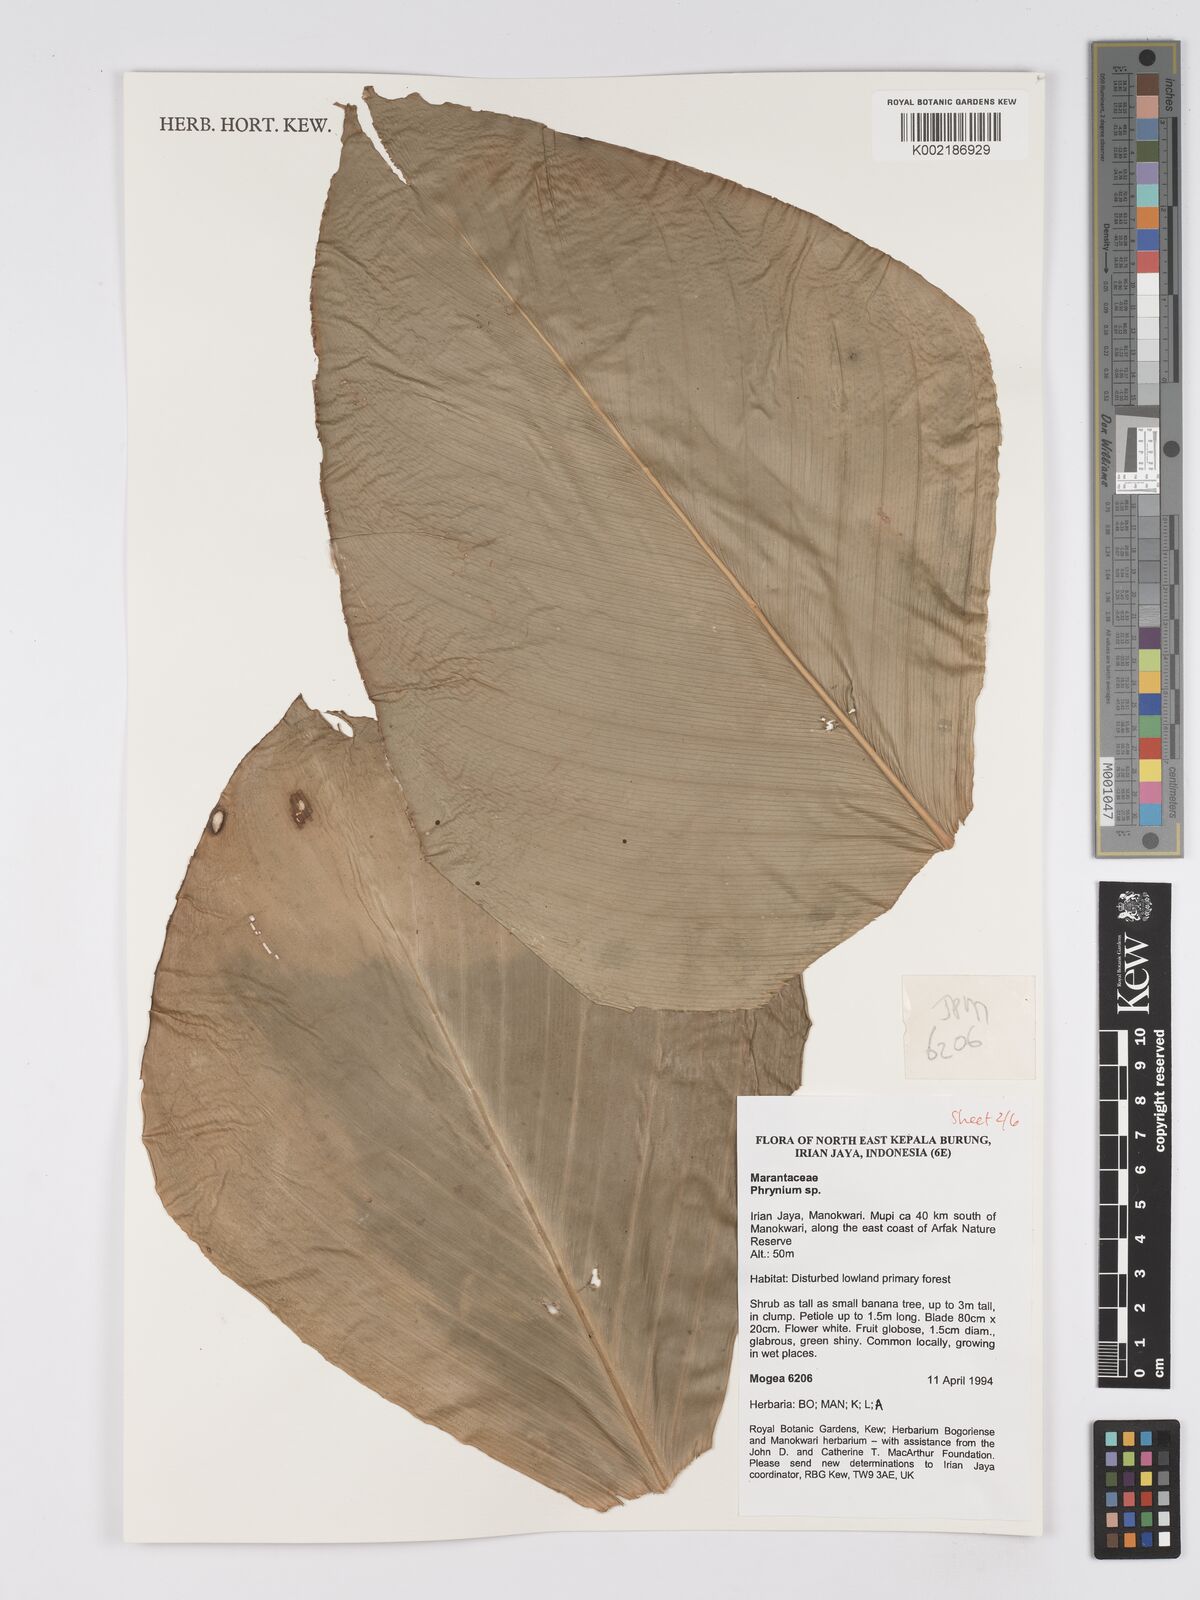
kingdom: Plantae
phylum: Tracheophyta
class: Liliopsida
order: Zingiberales
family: Marantaceae
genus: Phrynium
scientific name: Phrynium
